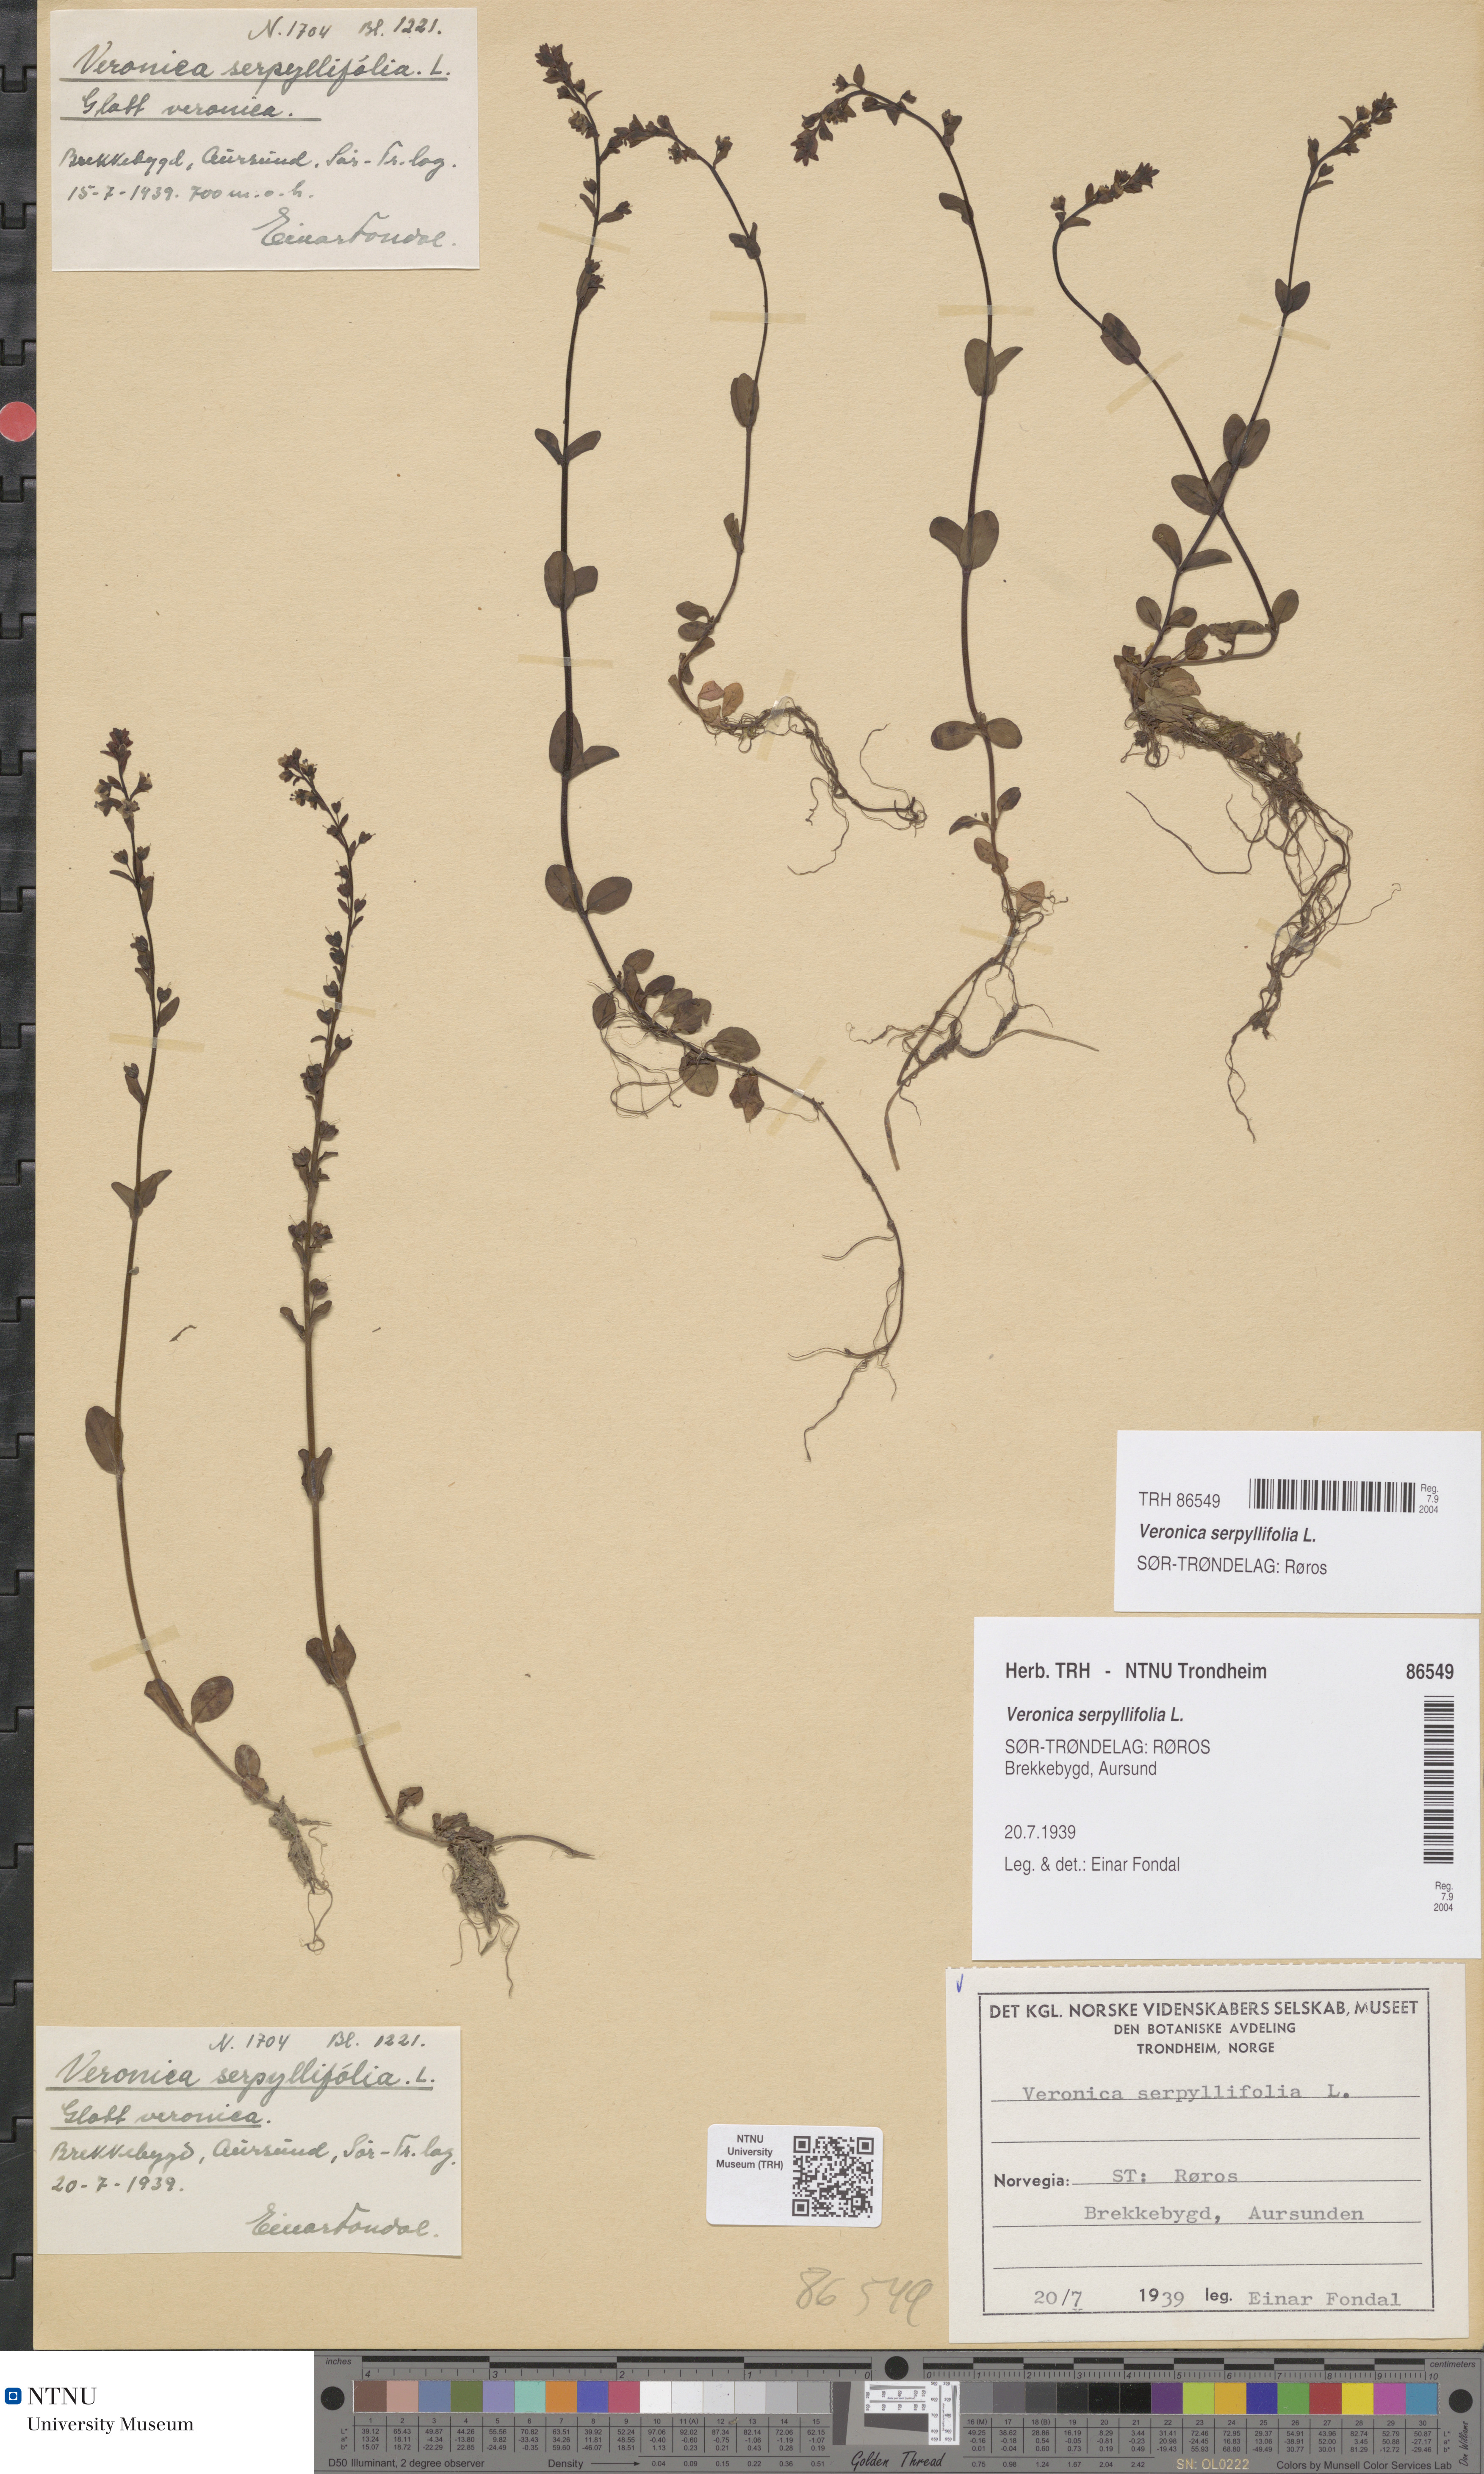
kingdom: Plantae
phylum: Tracheophyta
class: Magnoliopsida
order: Lamiales
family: Plantaginaceae
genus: Veronica
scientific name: Veronica serpyllifolia
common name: Thyme-leaved speedwell
